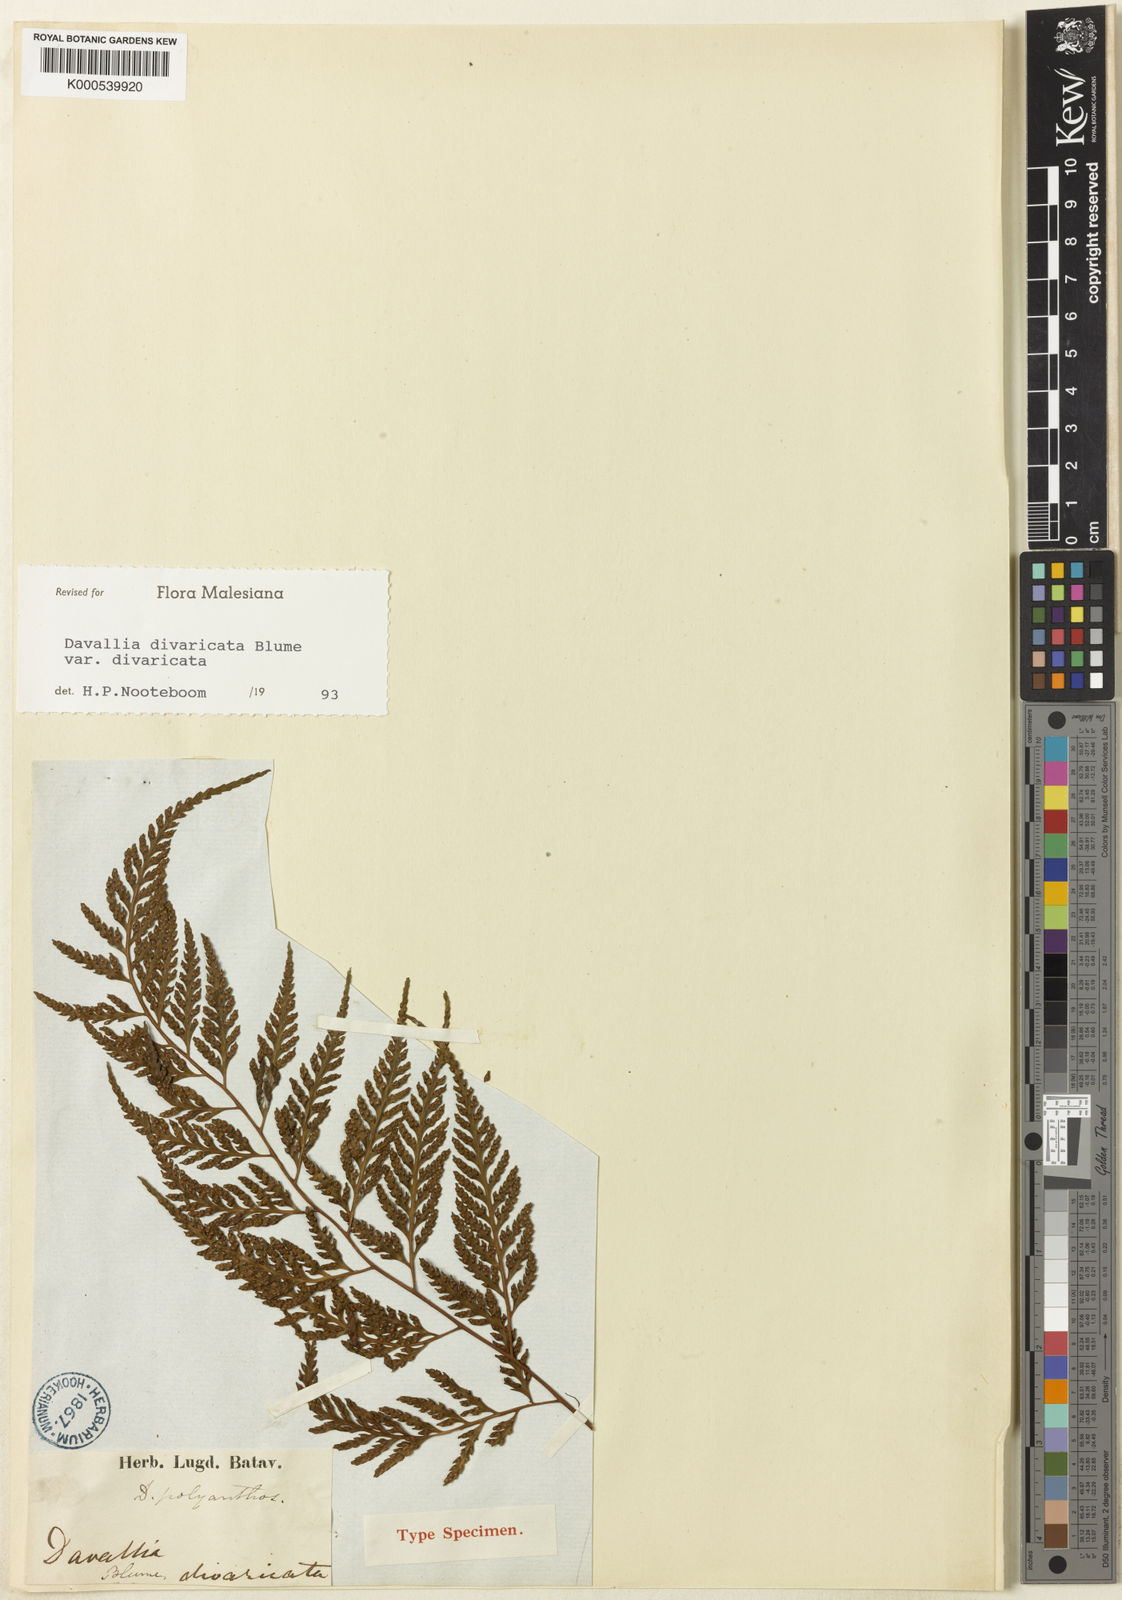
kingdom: Plantae
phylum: Tracheophyta
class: Polypodiopsida
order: Polypodiales
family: Davalliaceae
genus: Davallia
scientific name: Davallia divaricata
